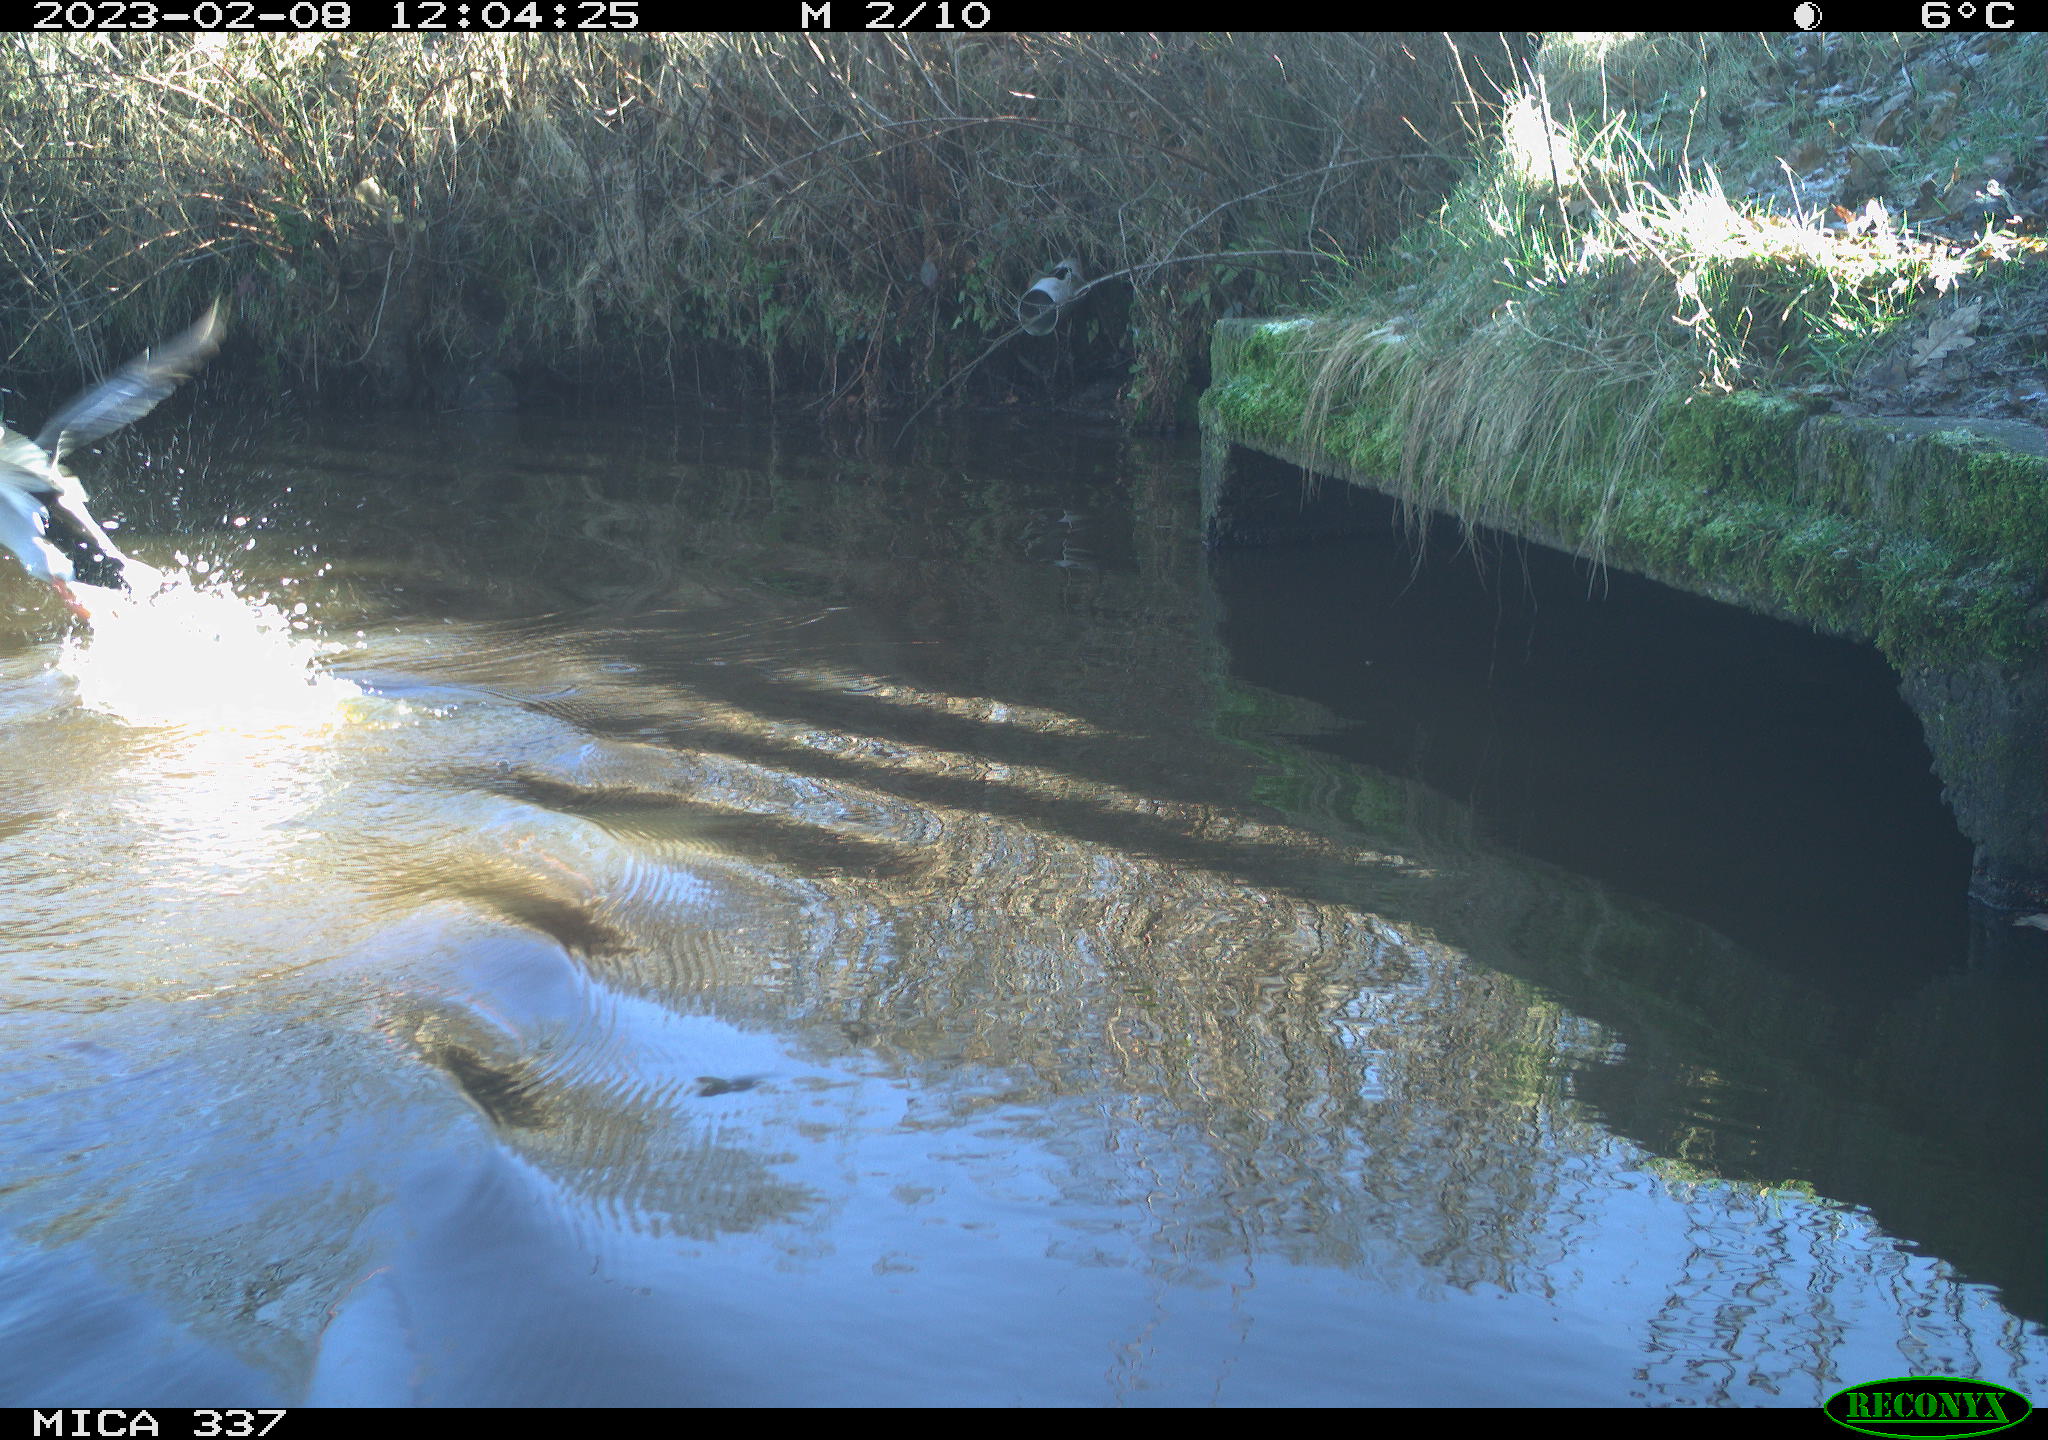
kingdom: Animalia
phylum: Chordata
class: Aves
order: Anseriformes
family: Anatidae
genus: Anas
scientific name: Anas
